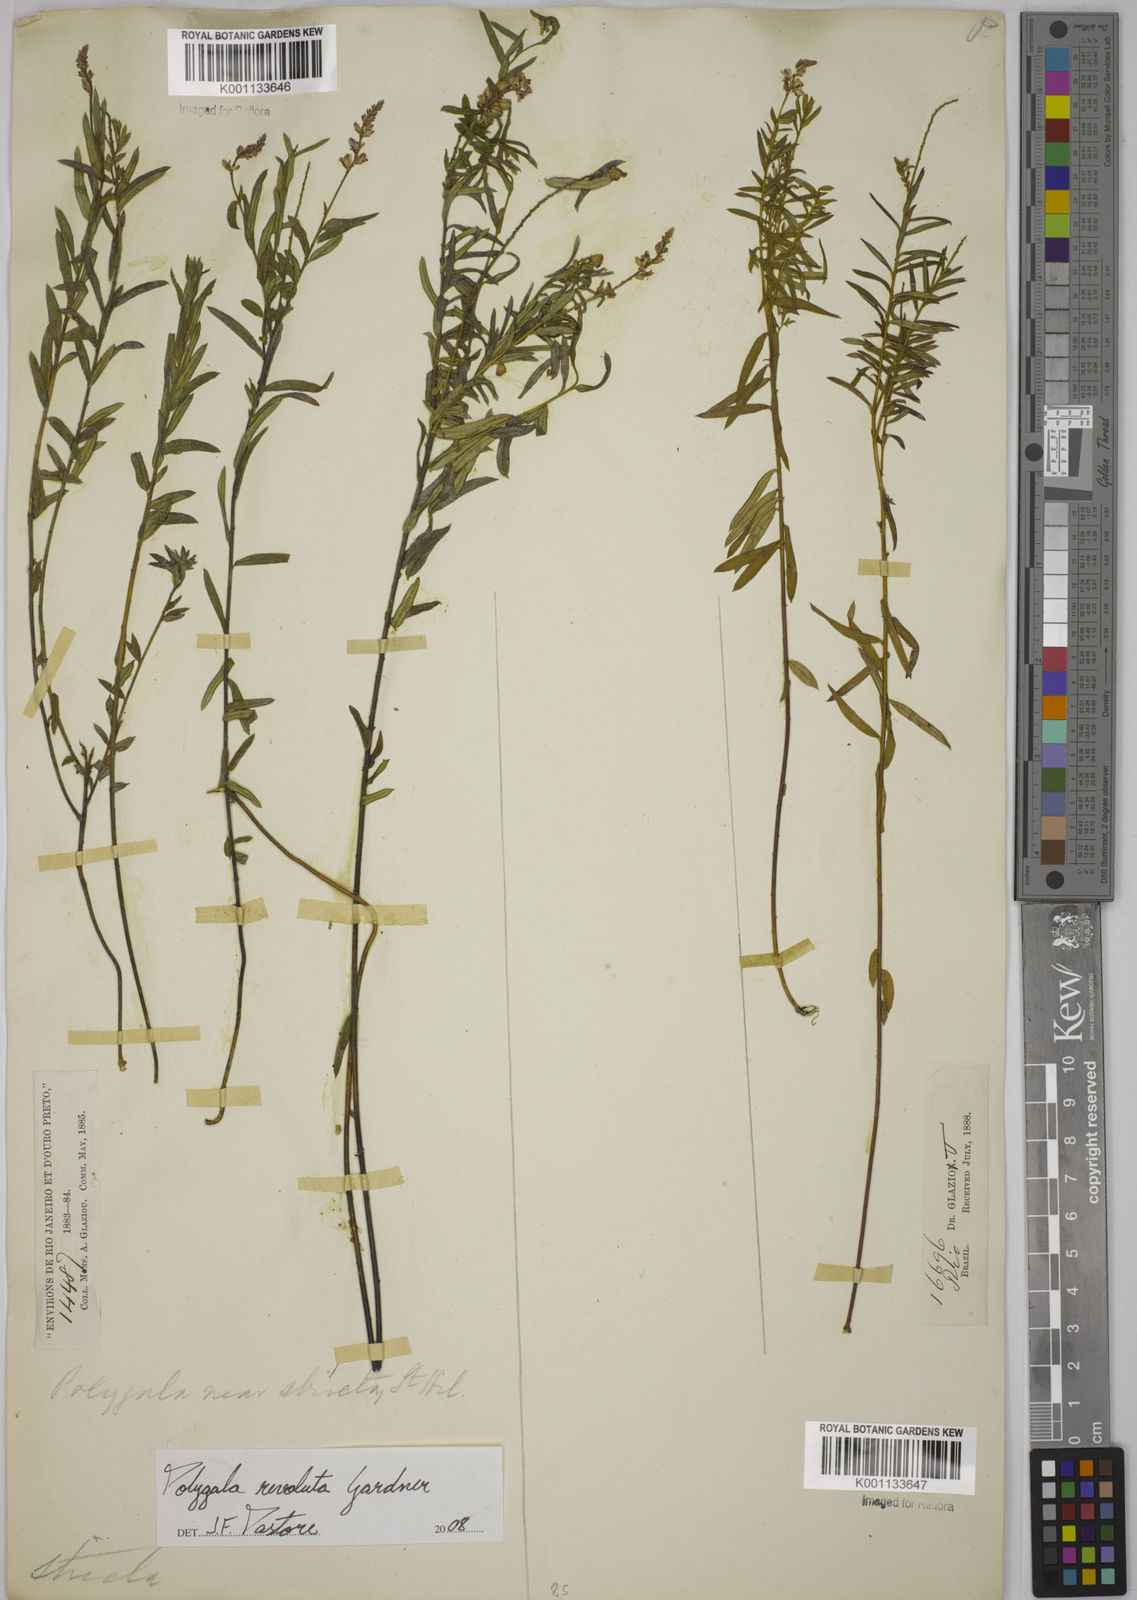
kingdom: Plantae
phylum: Tracheophyta
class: Magnoliopsida
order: Fabales
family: Polygalaceae
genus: Polygala
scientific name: Polygala revoluta
